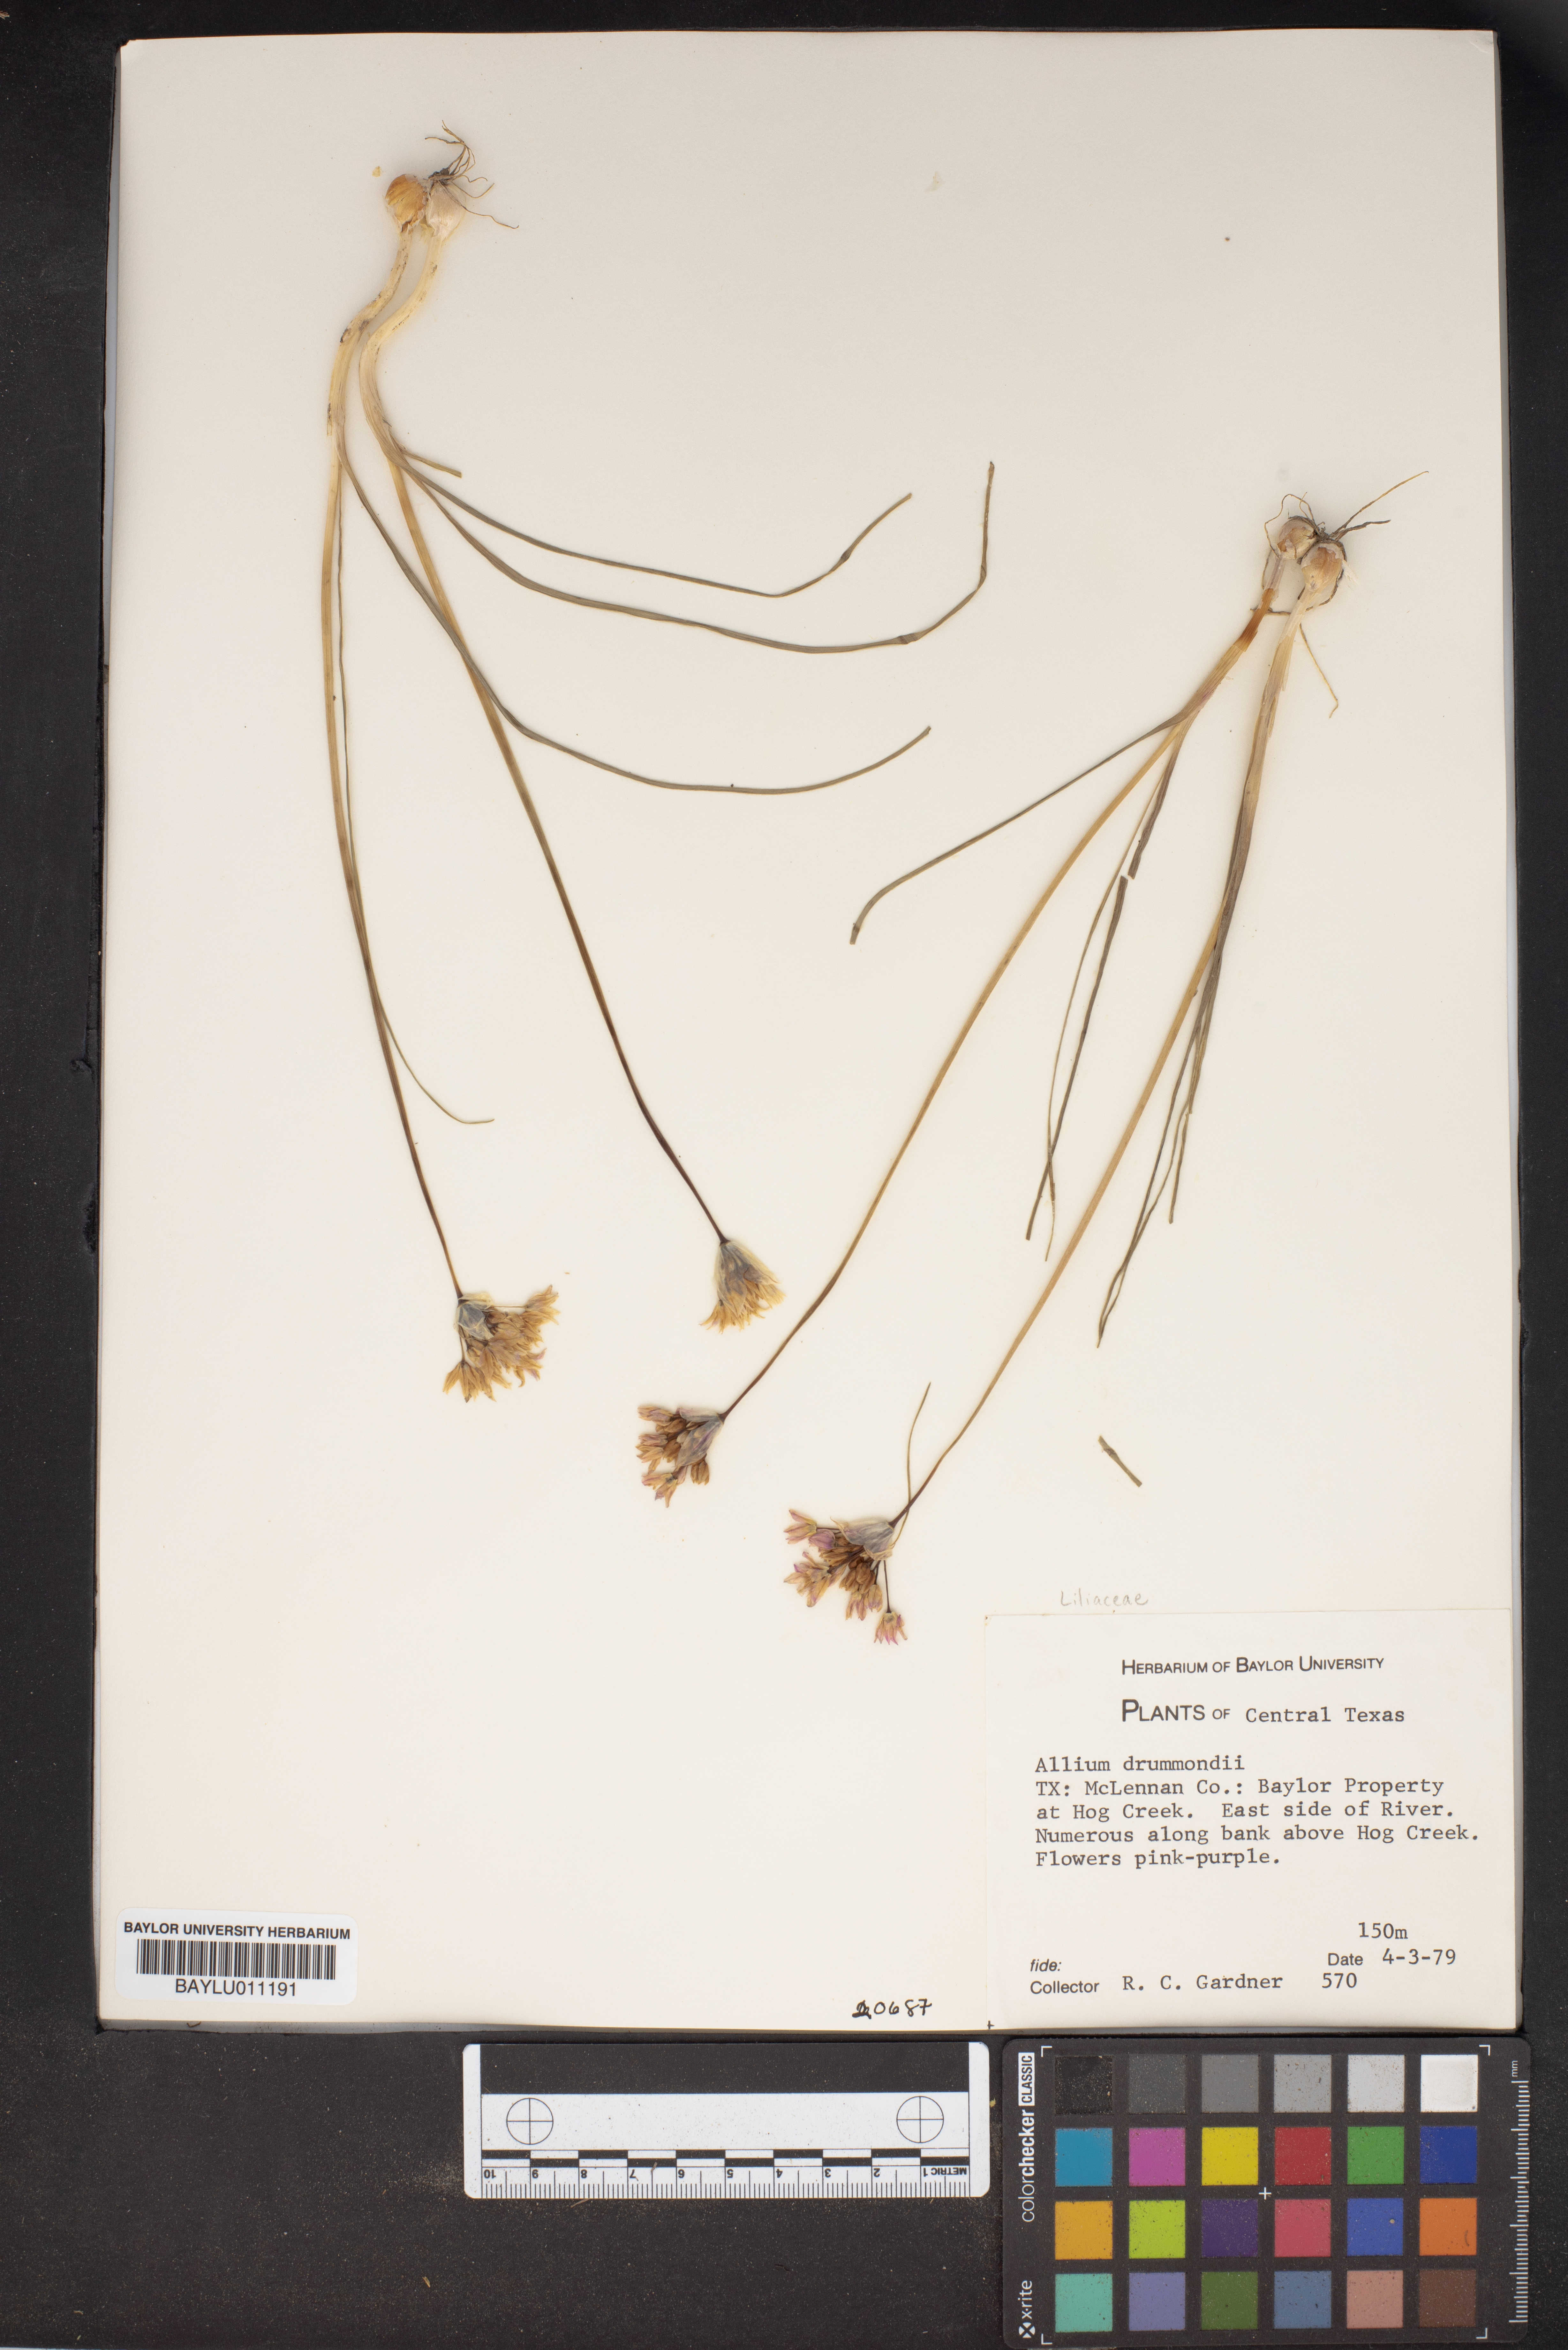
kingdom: Plantae
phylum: Tracheophyta
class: Liliopsida
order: Asparagales
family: Amaryllidaceae
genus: Allium
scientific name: Allium drummondii
